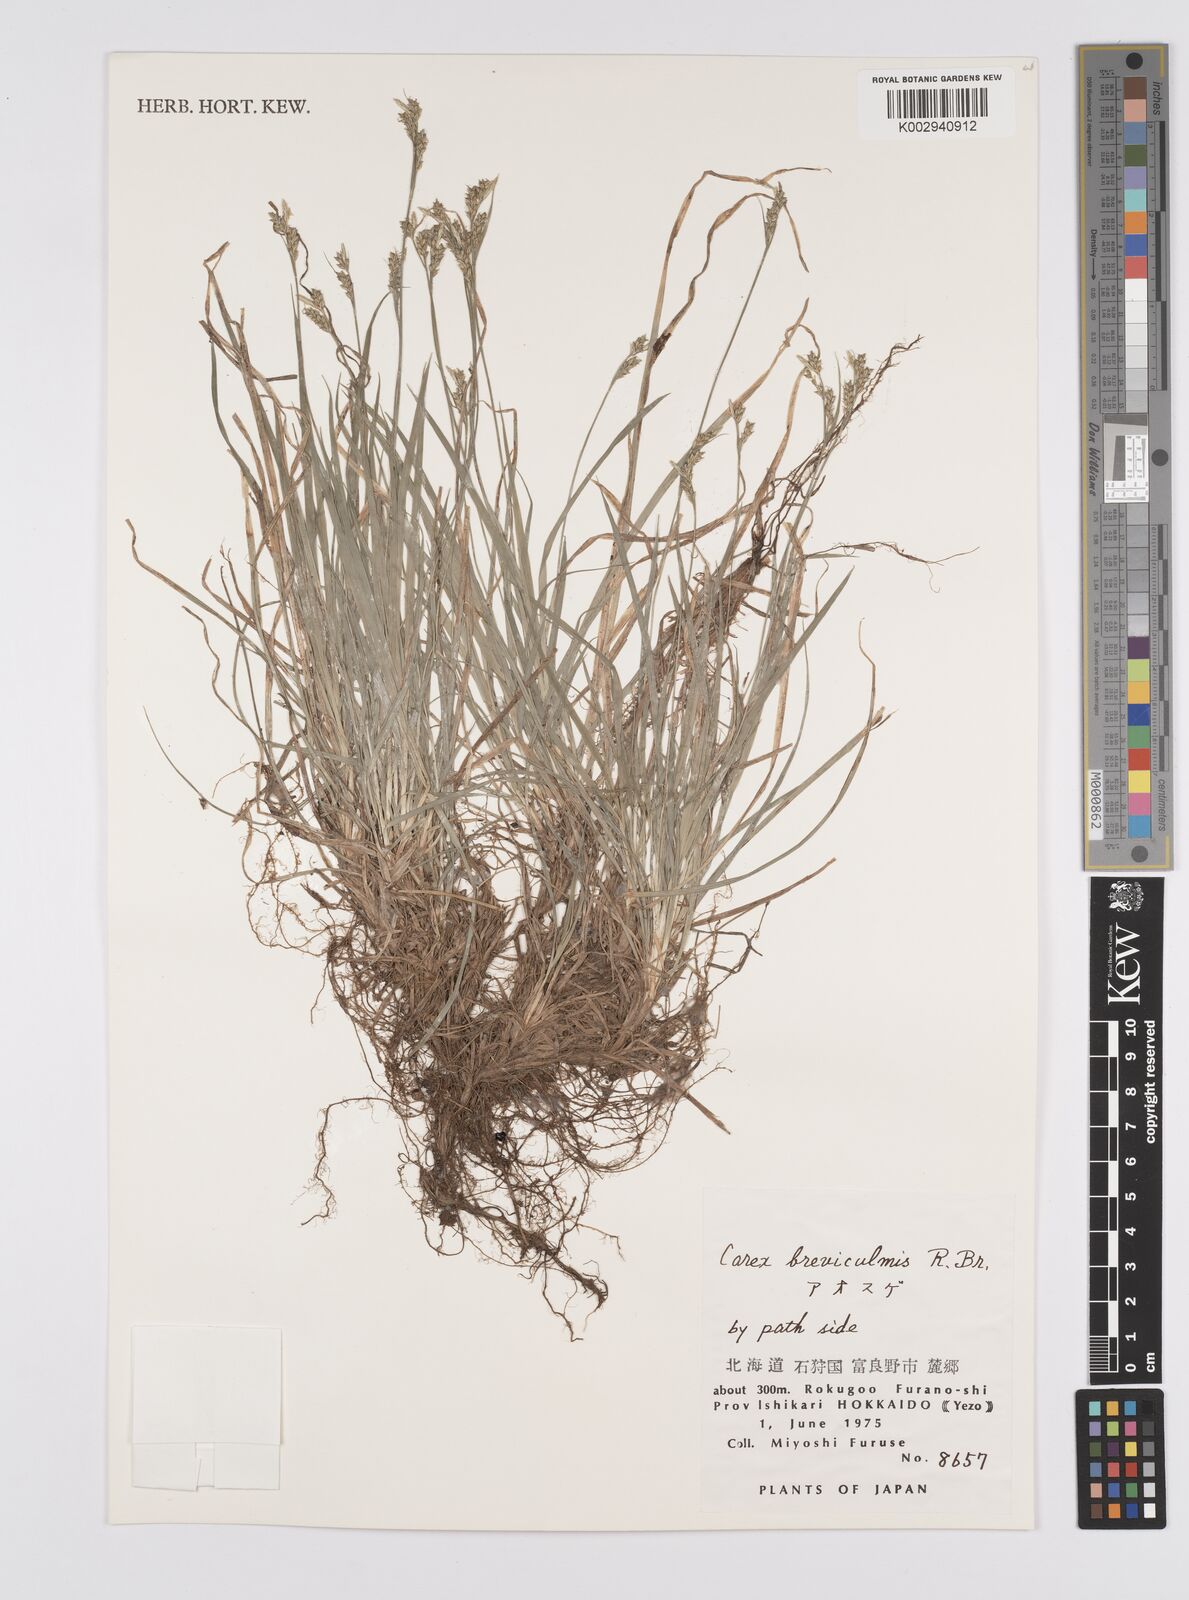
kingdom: Plantae
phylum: Tracheophyta
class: Liliopsida
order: Poales
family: Cyperaceae
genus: Carex
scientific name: Carex breviculmis
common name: Asian shortstem sedge
